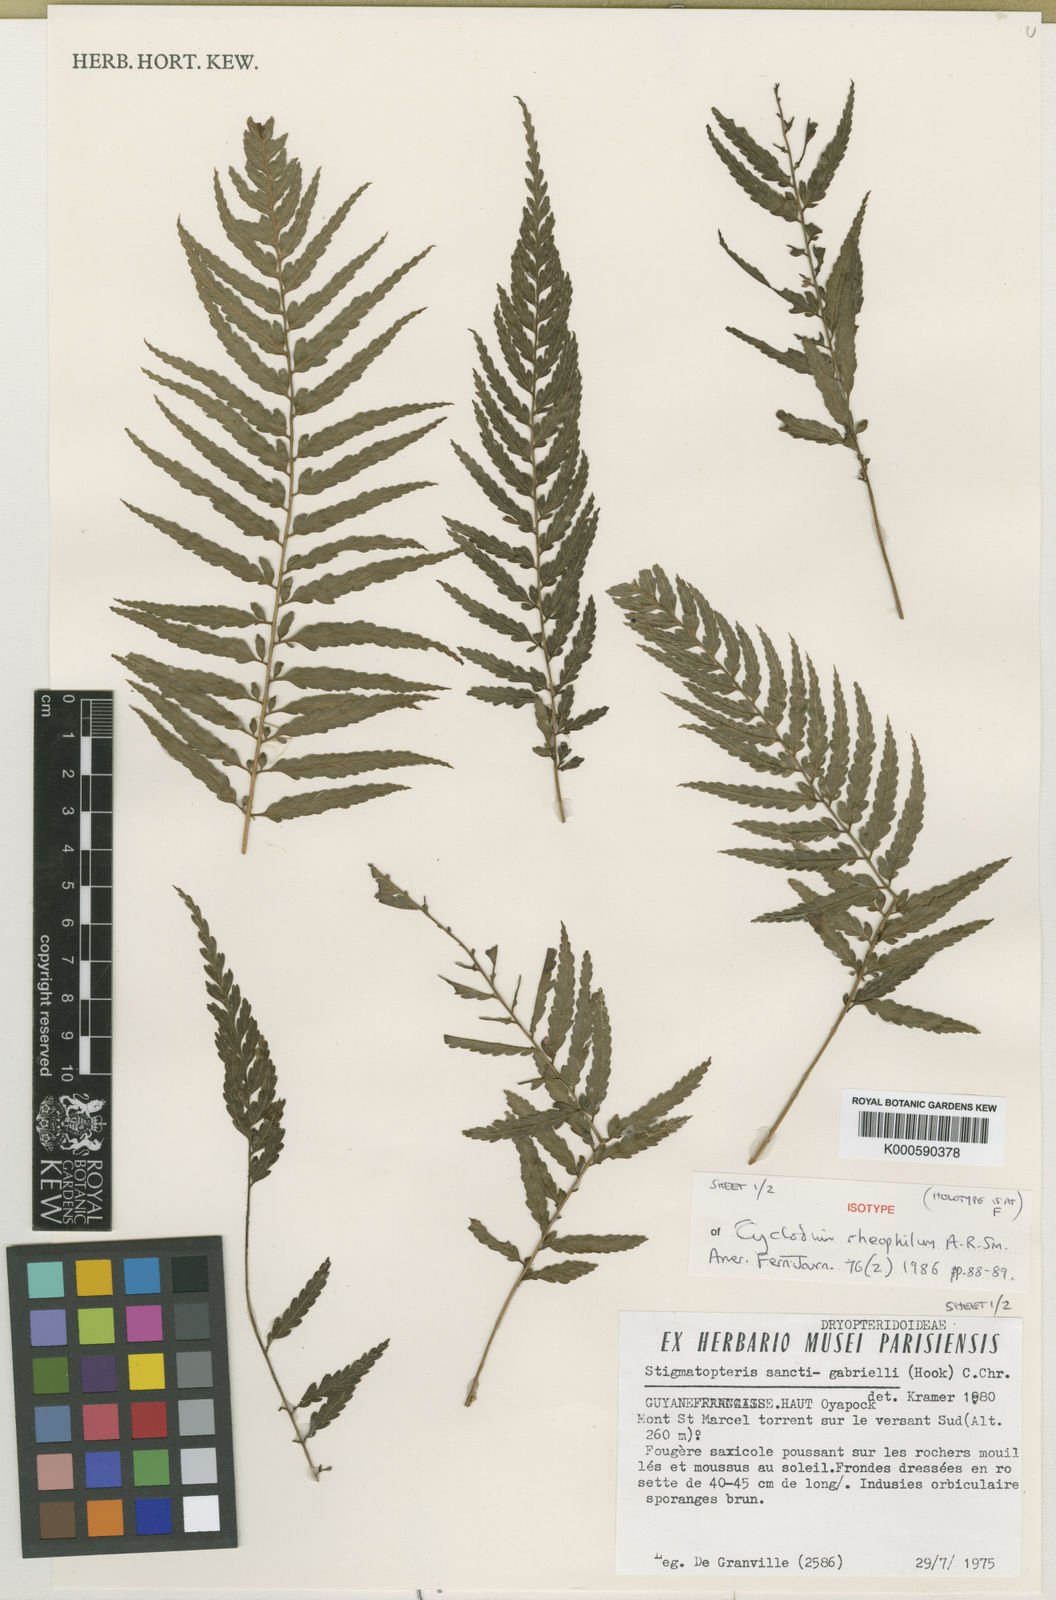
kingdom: Plantae
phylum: Tracheophyta
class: Polypodiopsida
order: Polypodiales
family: Dryopteridaceae
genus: Cyclodium
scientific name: Cyclodium rheophilum
